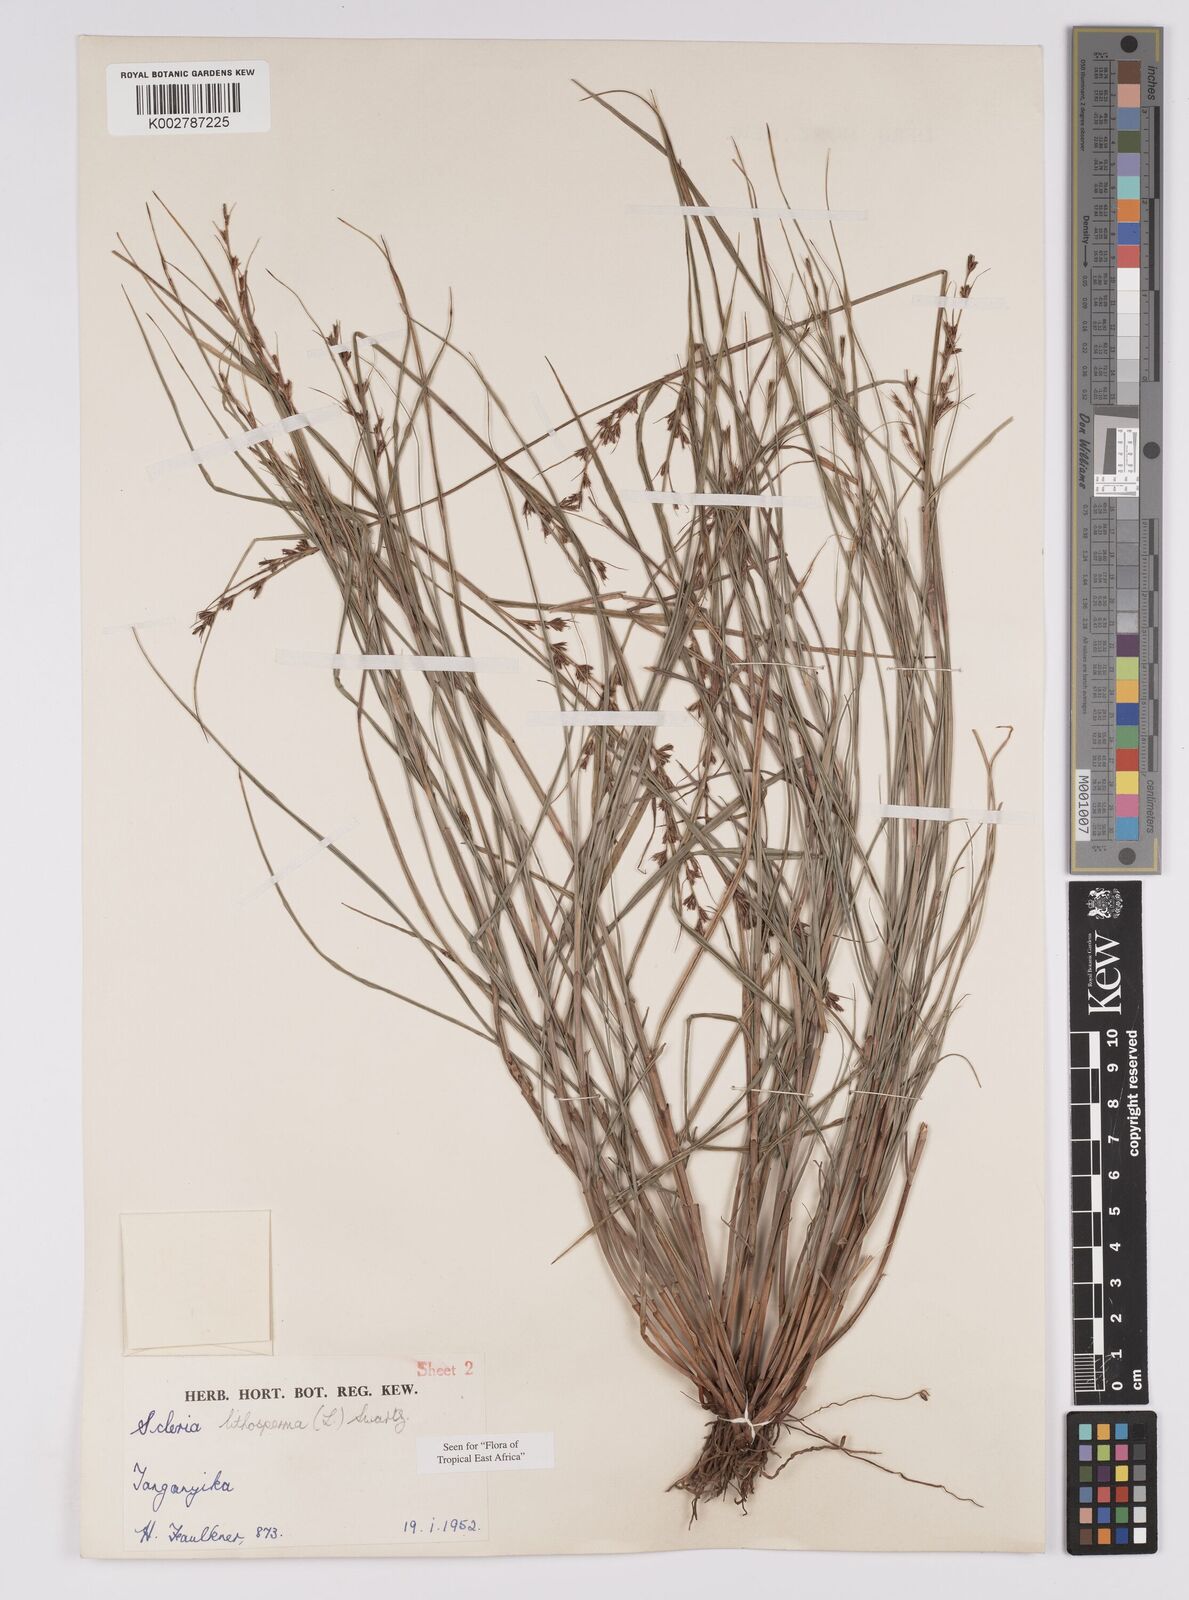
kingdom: Plantae
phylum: Tracheophyta
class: Liliopsida
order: Poales
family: Cyperaceae
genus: Scleria
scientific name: Scleria lithosperma
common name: Florida keys nut-rush
